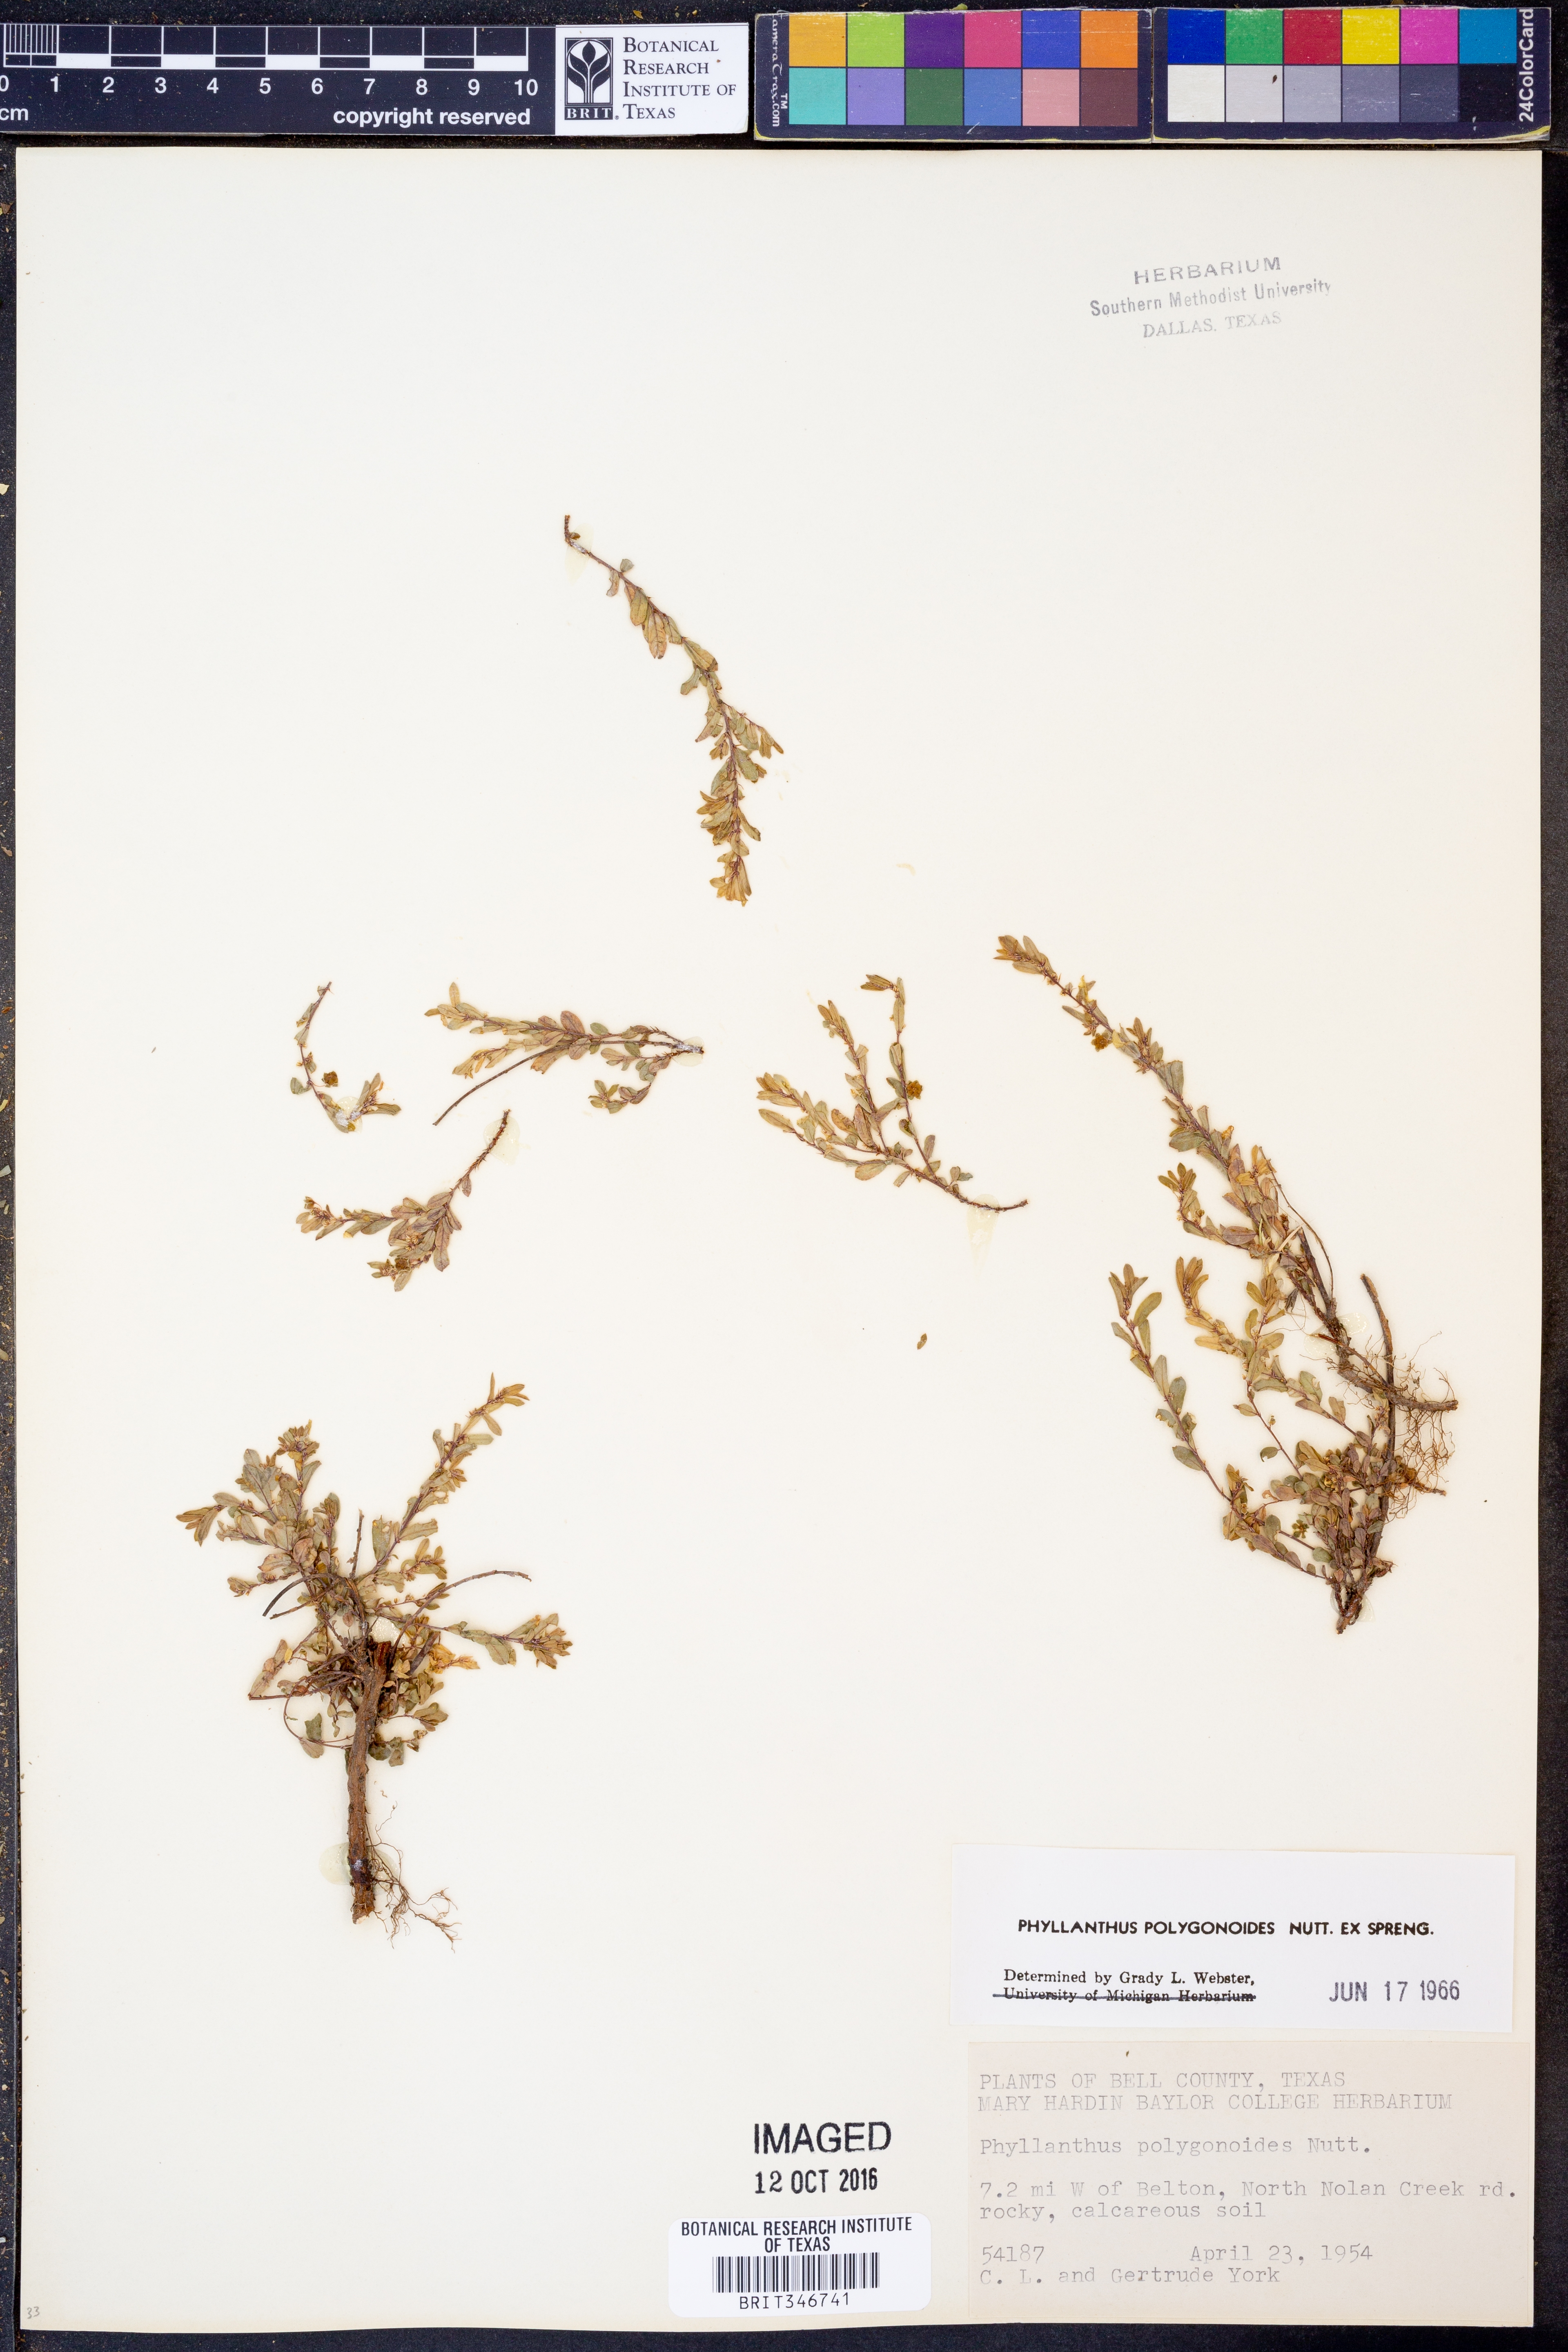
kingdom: Plantae
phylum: Tracheophyta
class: Magnoliopsida
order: Malpighiales
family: Phyllanthaceae
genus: Phyllanthus
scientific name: Phyllanthus polygonoides
